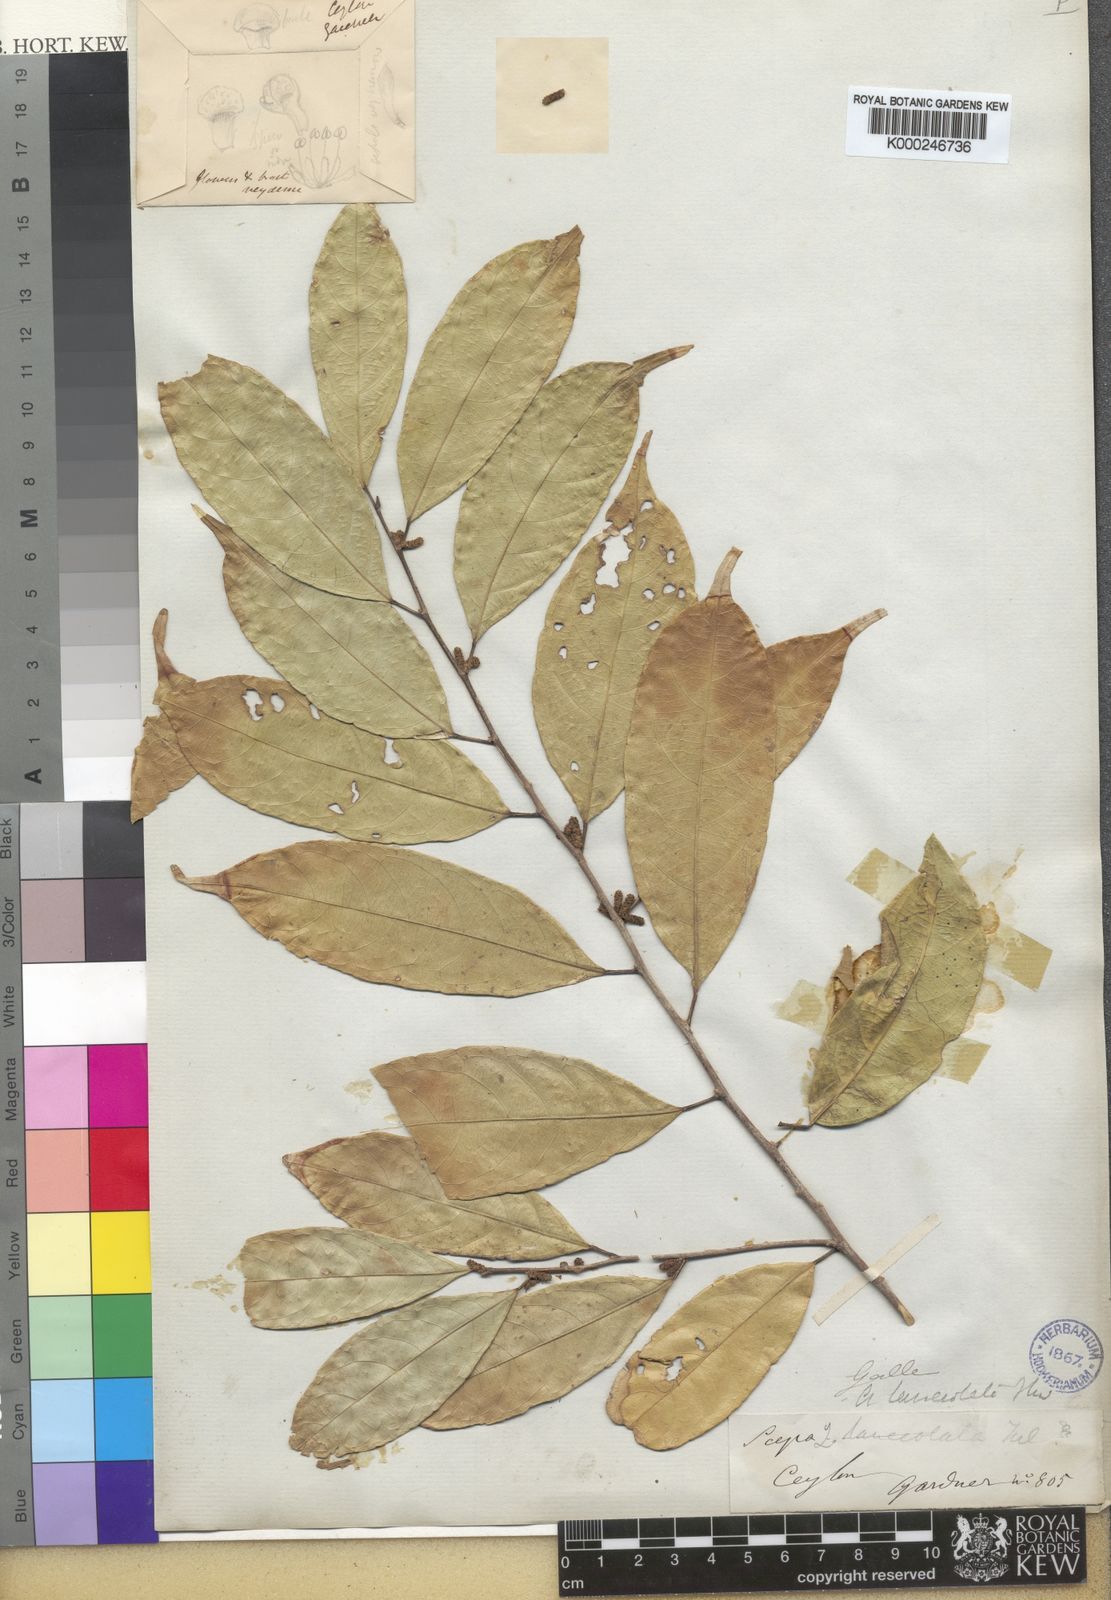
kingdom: Plantae
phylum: Tracheophyta
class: Magnoliopsida
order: Malpighiales
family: Phyllanthaceae
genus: Aporosa
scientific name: Aporosa lanceolata
